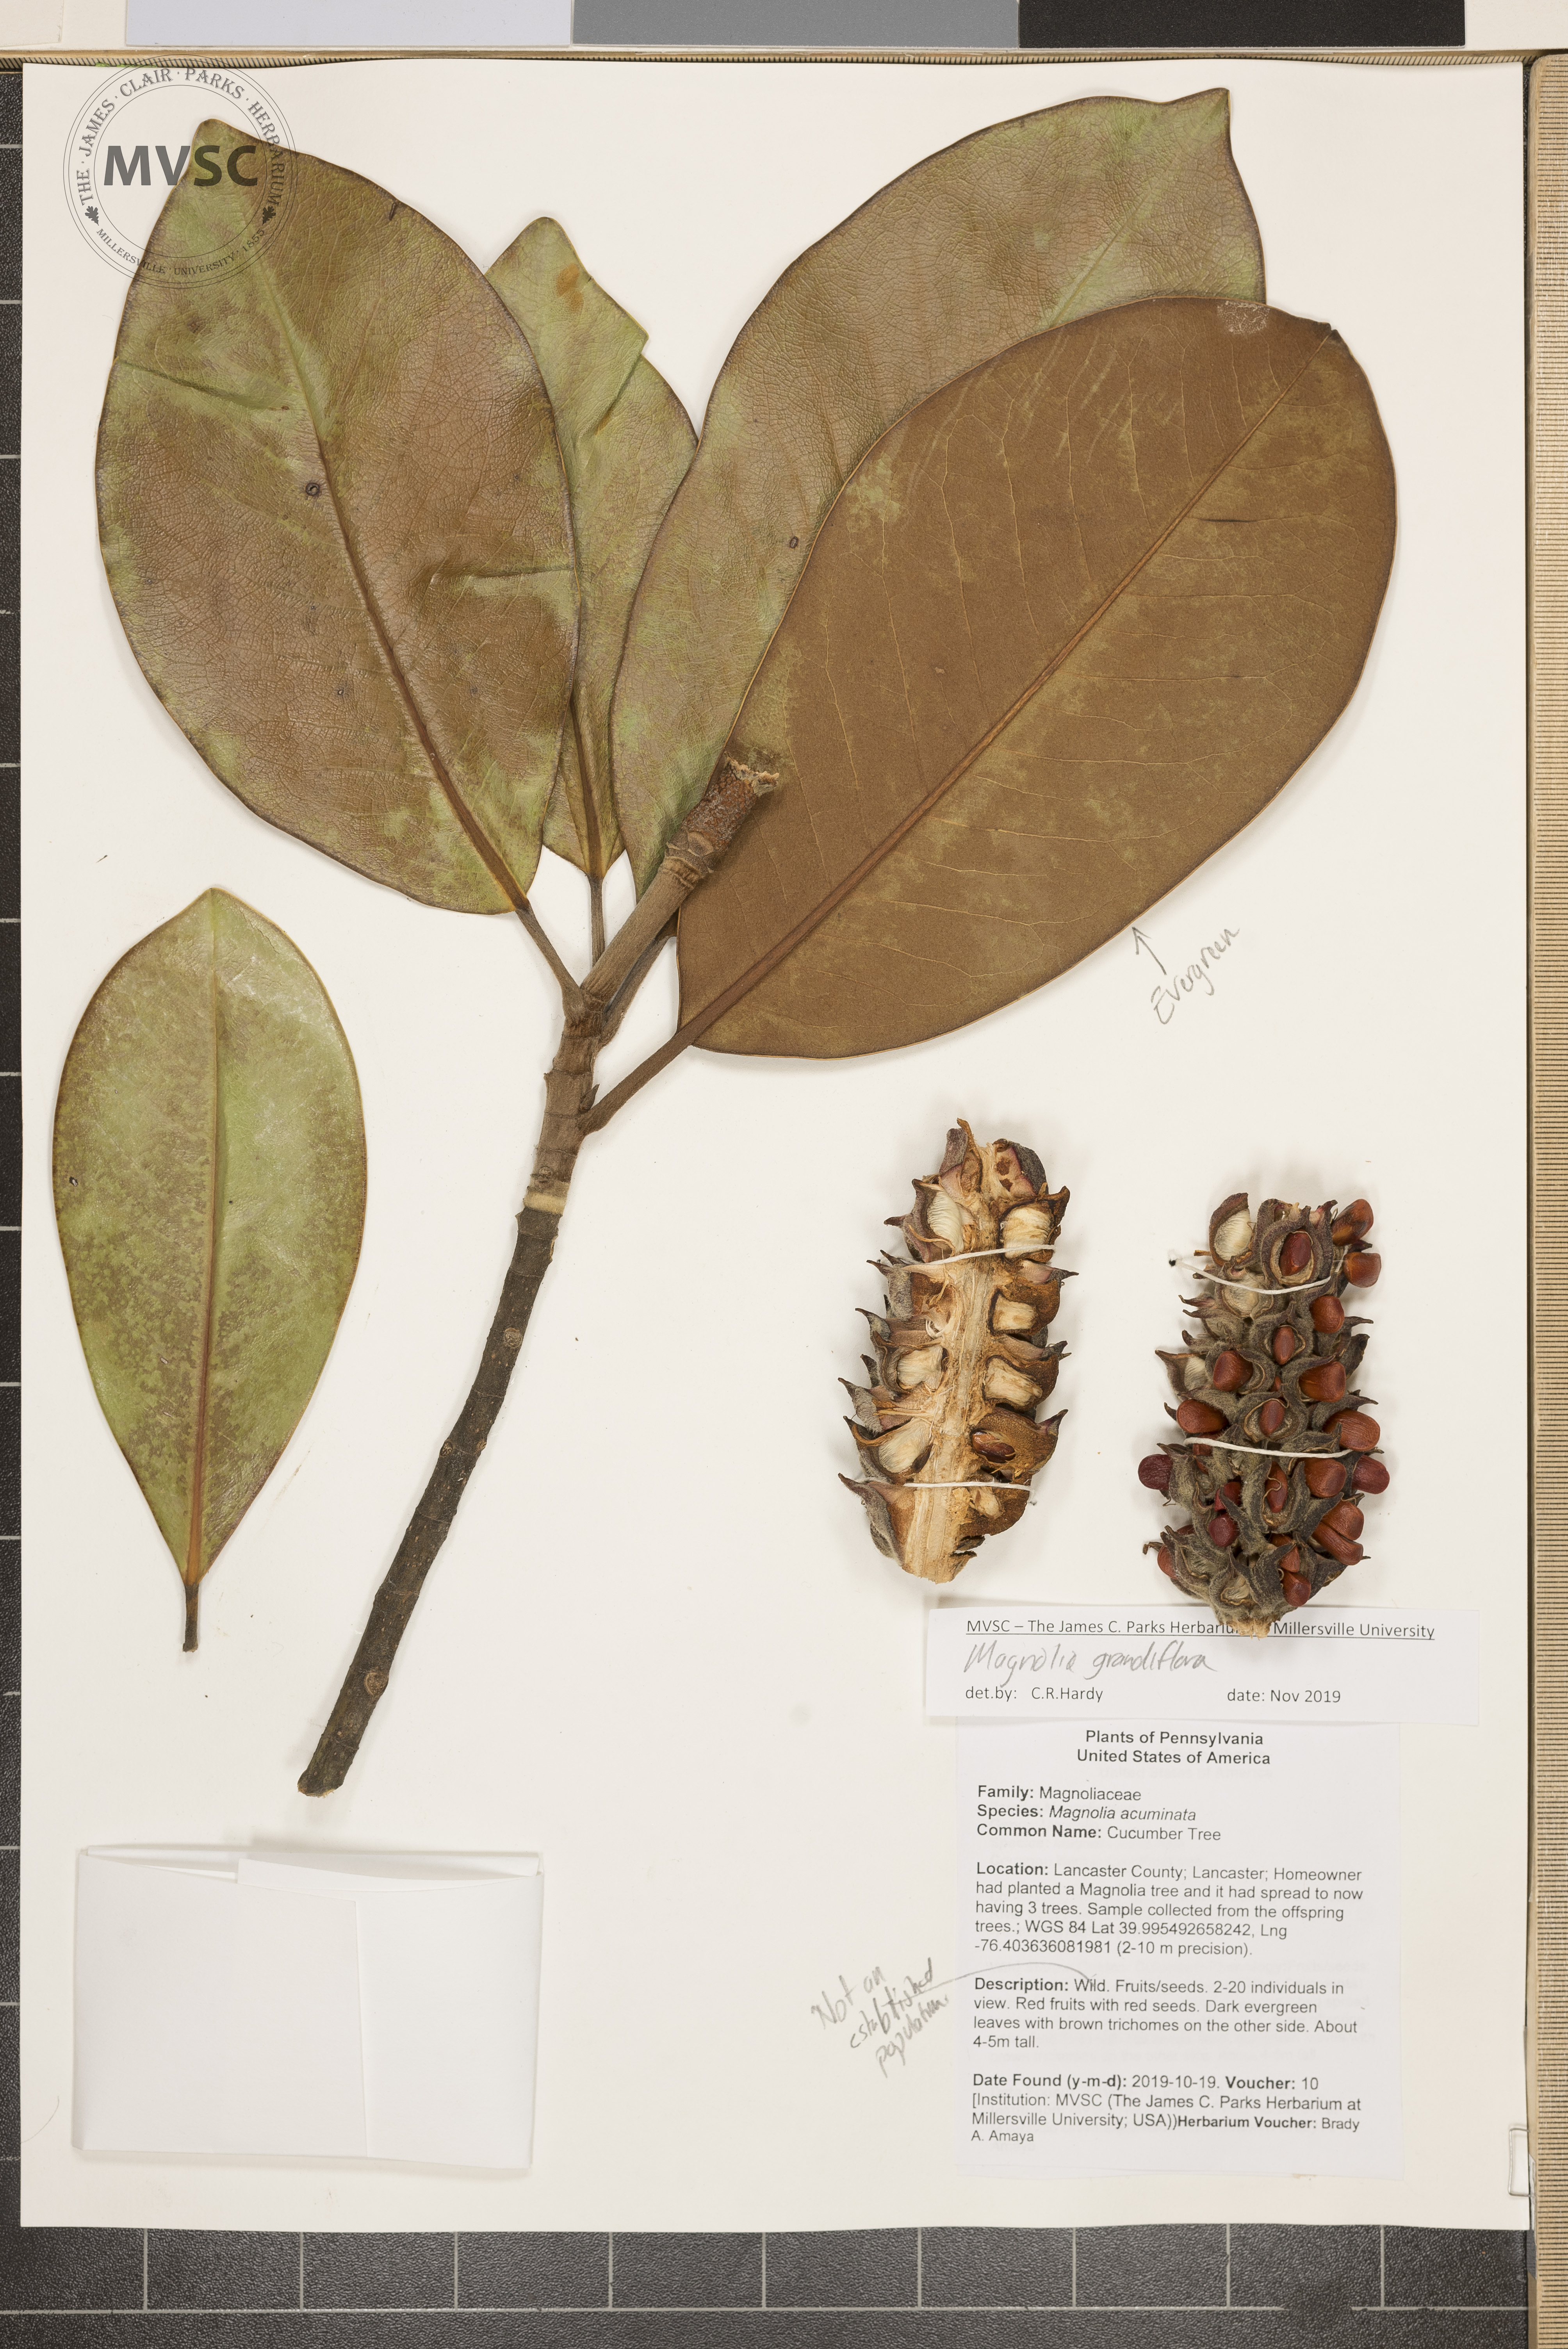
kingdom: Plantae
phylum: Tracheophyta
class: Magnoliopsida
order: Magnoliales
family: Magnoliaceae
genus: Magnolia
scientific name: Magnolia grandiflora
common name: Southern magnolia
